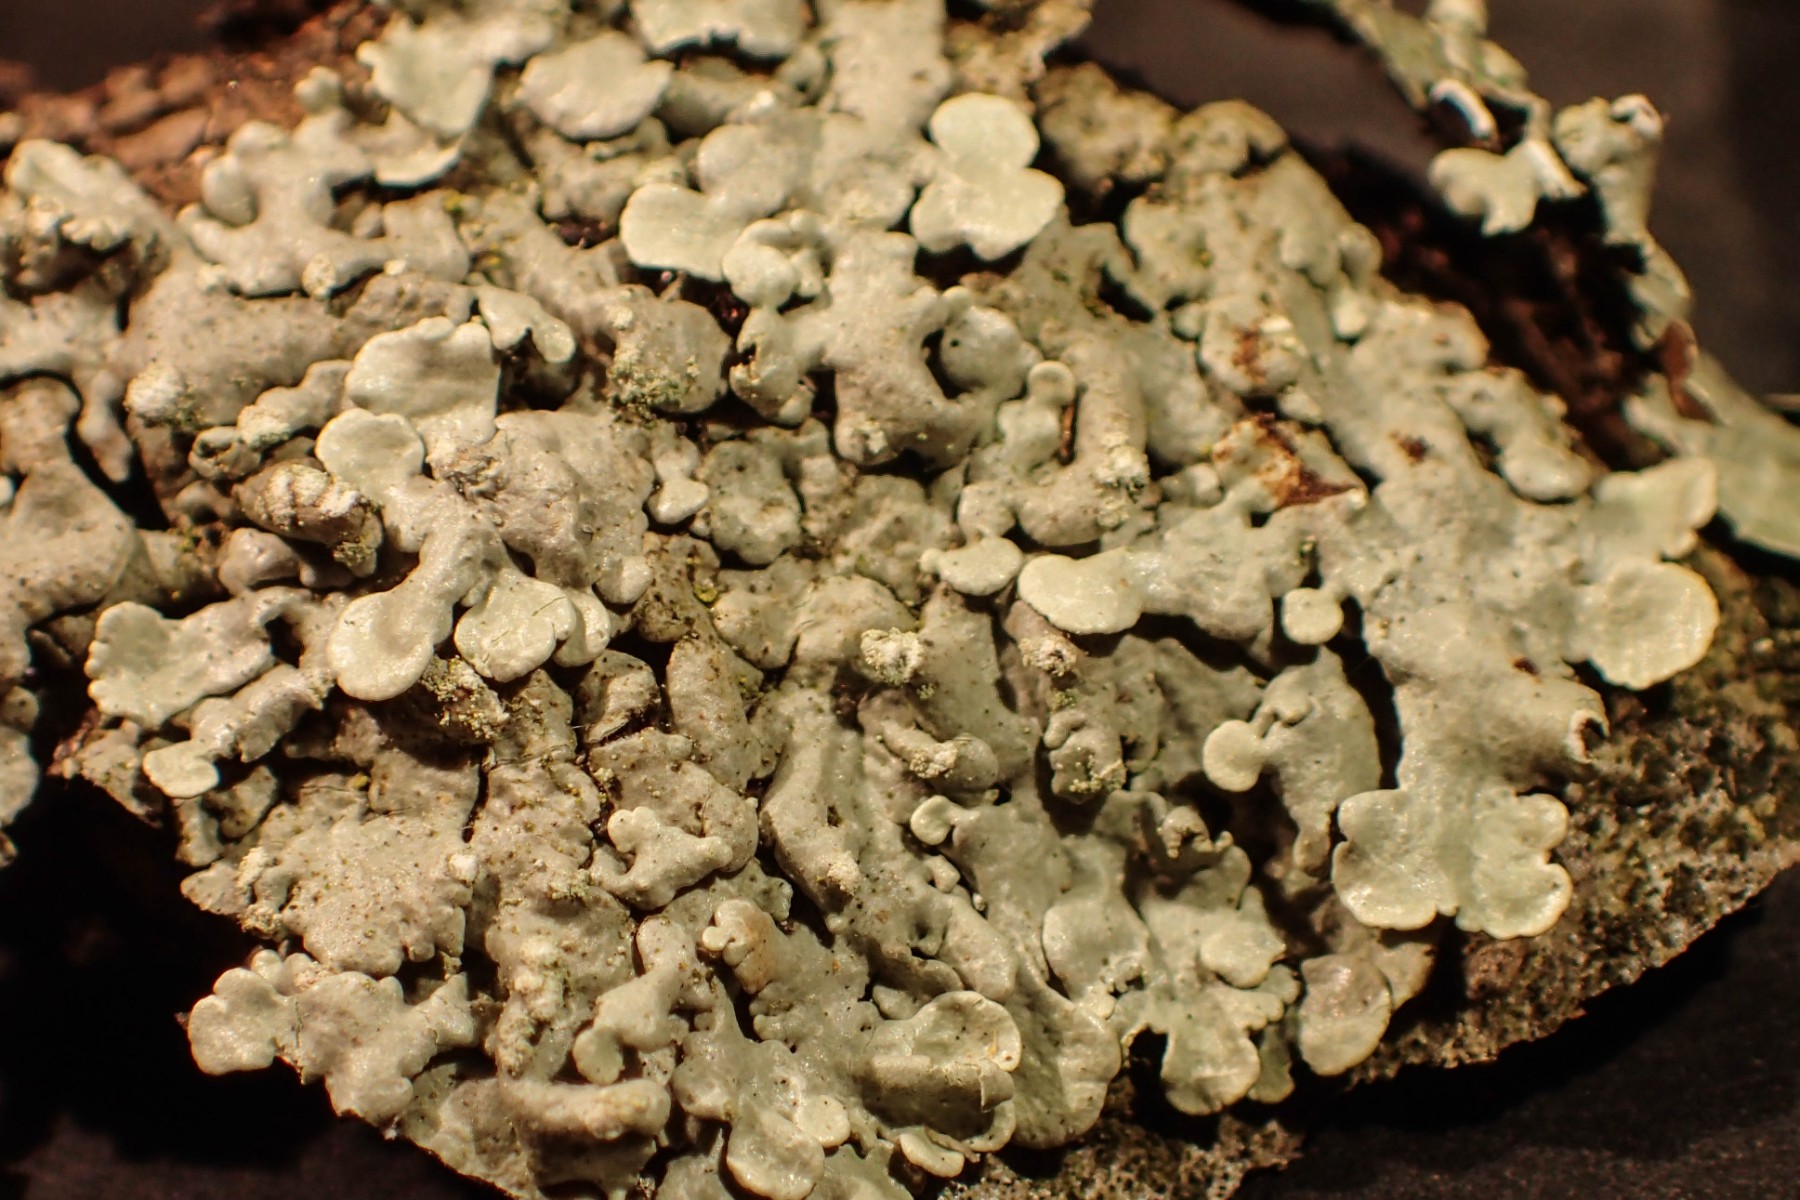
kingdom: Fungi
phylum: Ascomycota
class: Lecanoromycetes
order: Lecanorales
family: Parmeliaceae
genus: Flavoparmelia
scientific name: Flavoparmelia soredians
